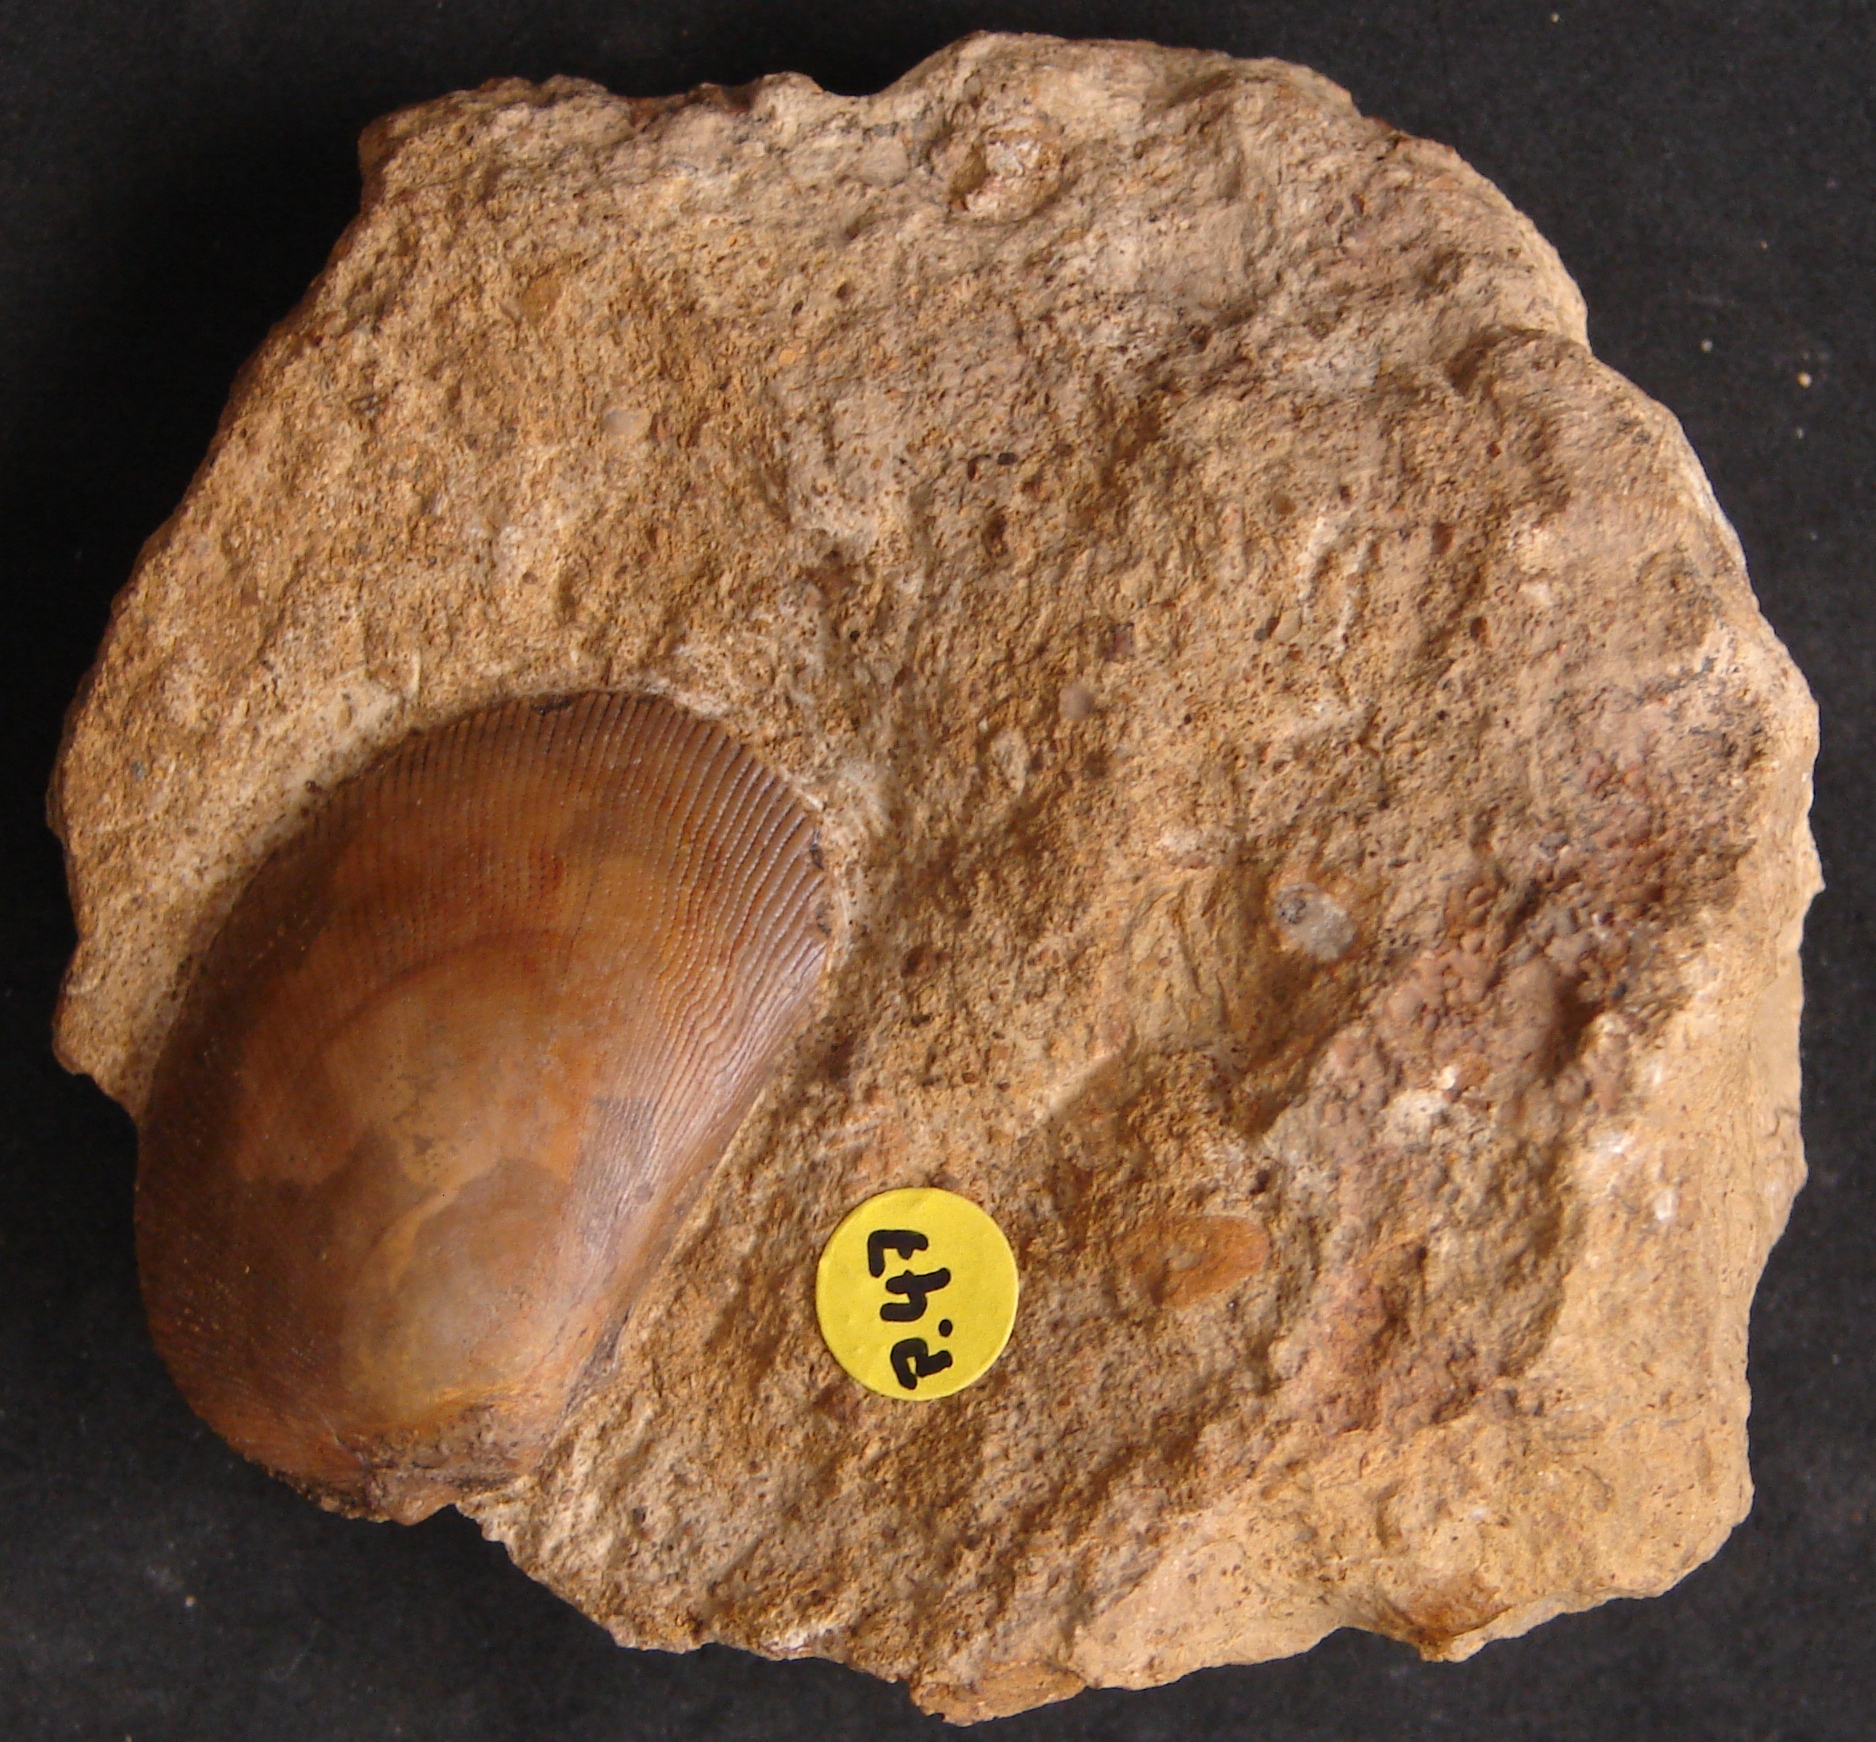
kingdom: Animalia
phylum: Mollusca
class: Bivalvia
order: Limida
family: Limidae
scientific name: Limidae
